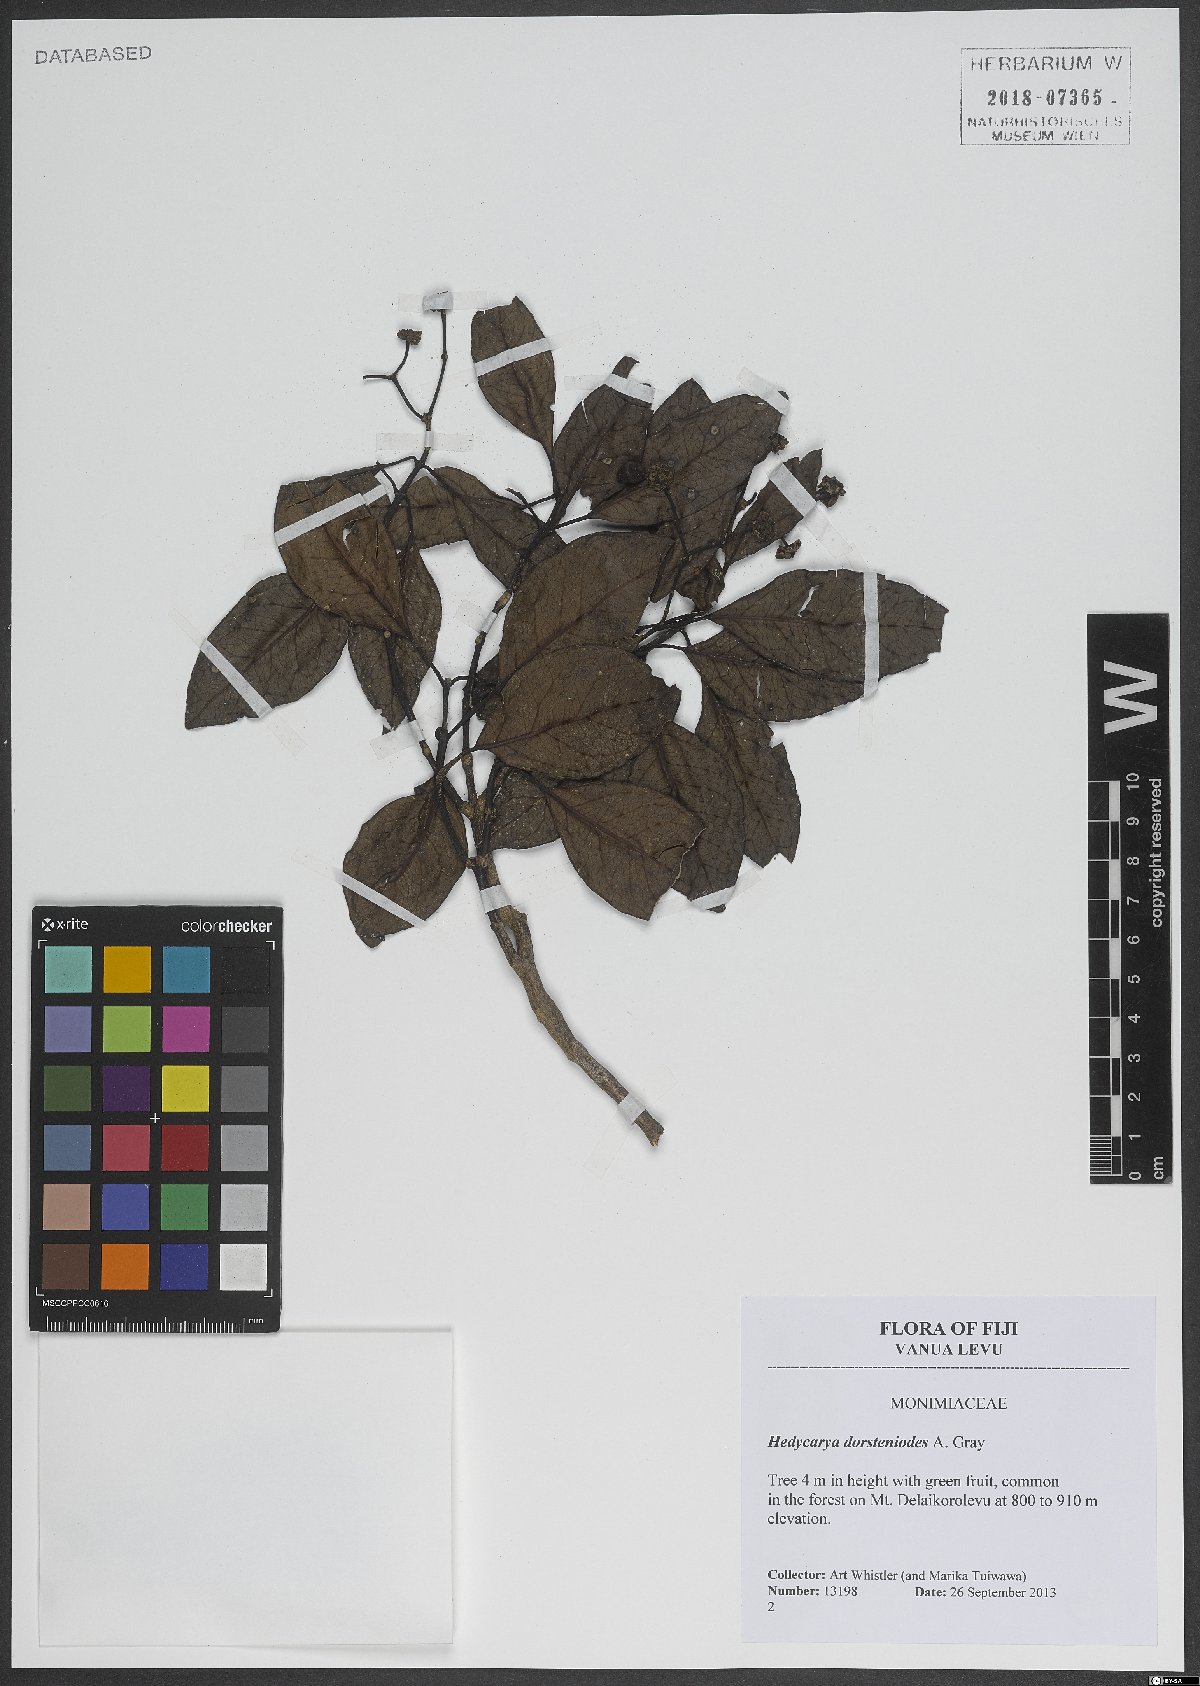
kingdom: Plantae
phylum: Tracheophyta
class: Magnoliopsida
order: Laurales
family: Monimiaceae
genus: Hedycarya
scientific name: Hedycarya dorstenioides
